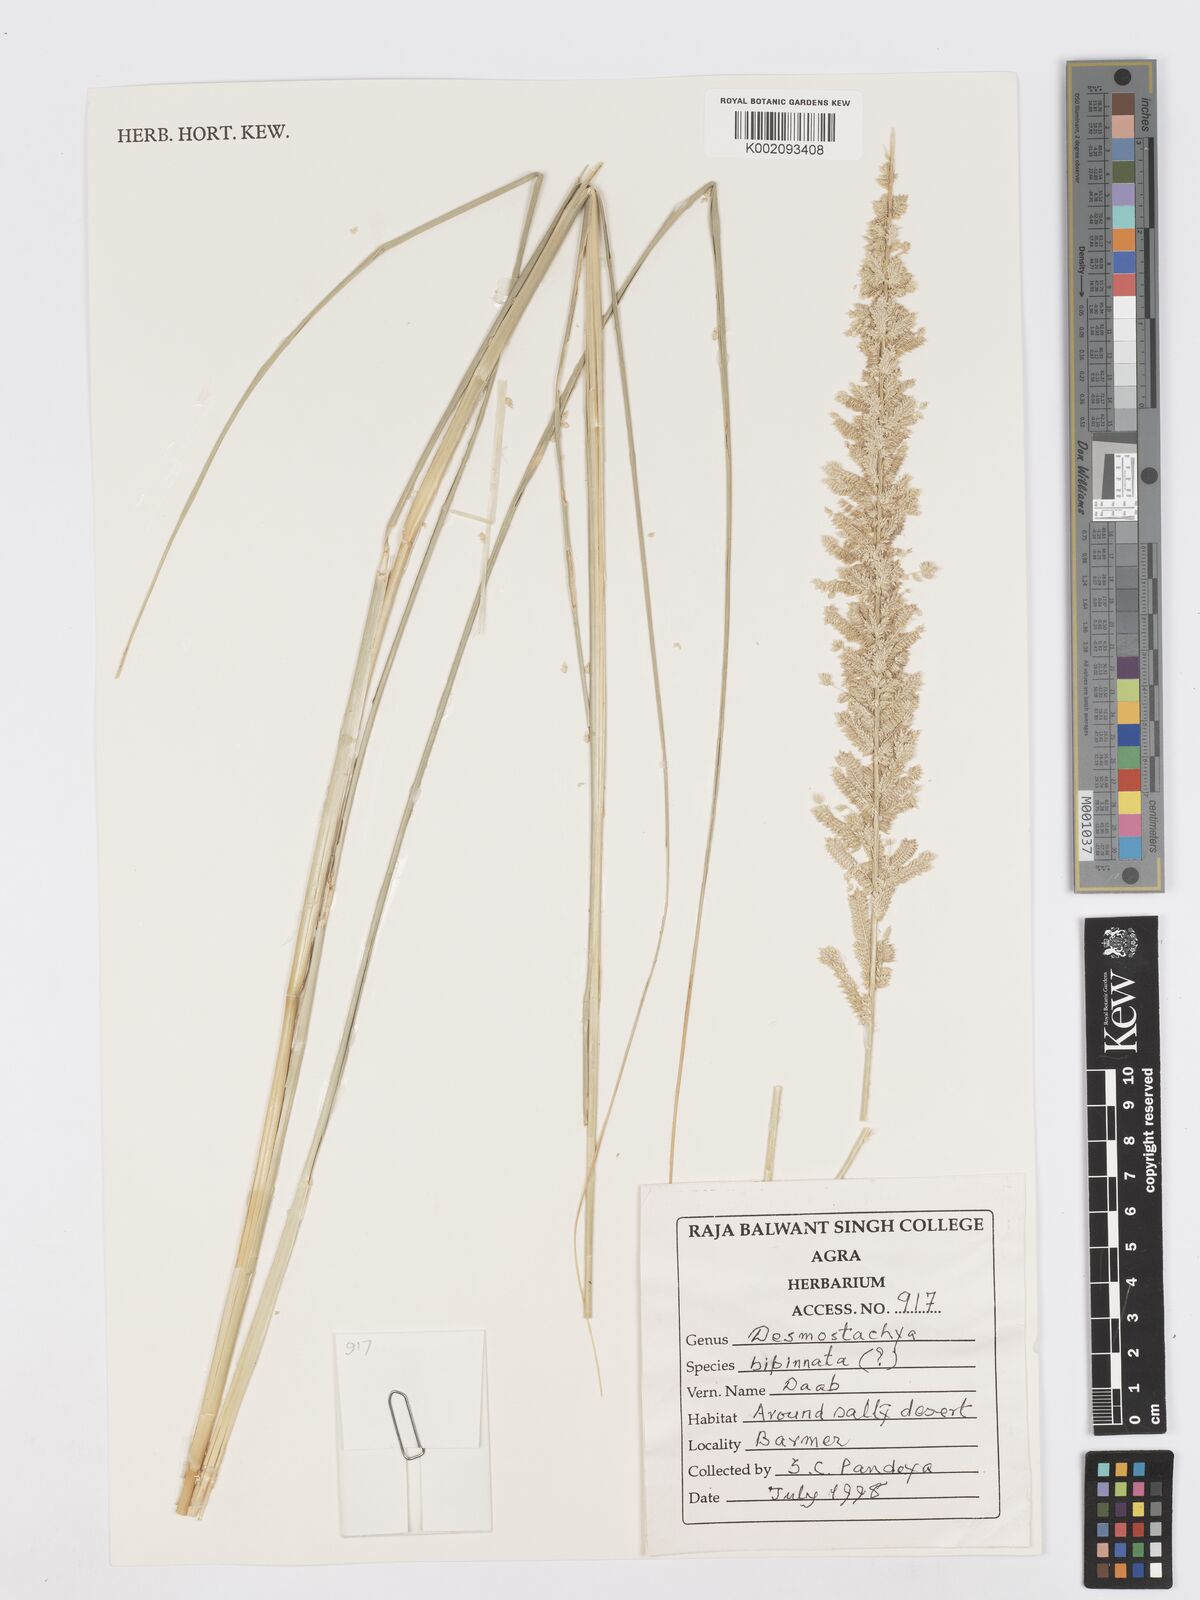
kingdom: Plantae
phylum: Tracheophyta
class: Liliopsida
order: Poales
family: Poaceae
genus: Desmostachya
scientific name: Desmostachya bipinnata
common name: Crowfoot grass
